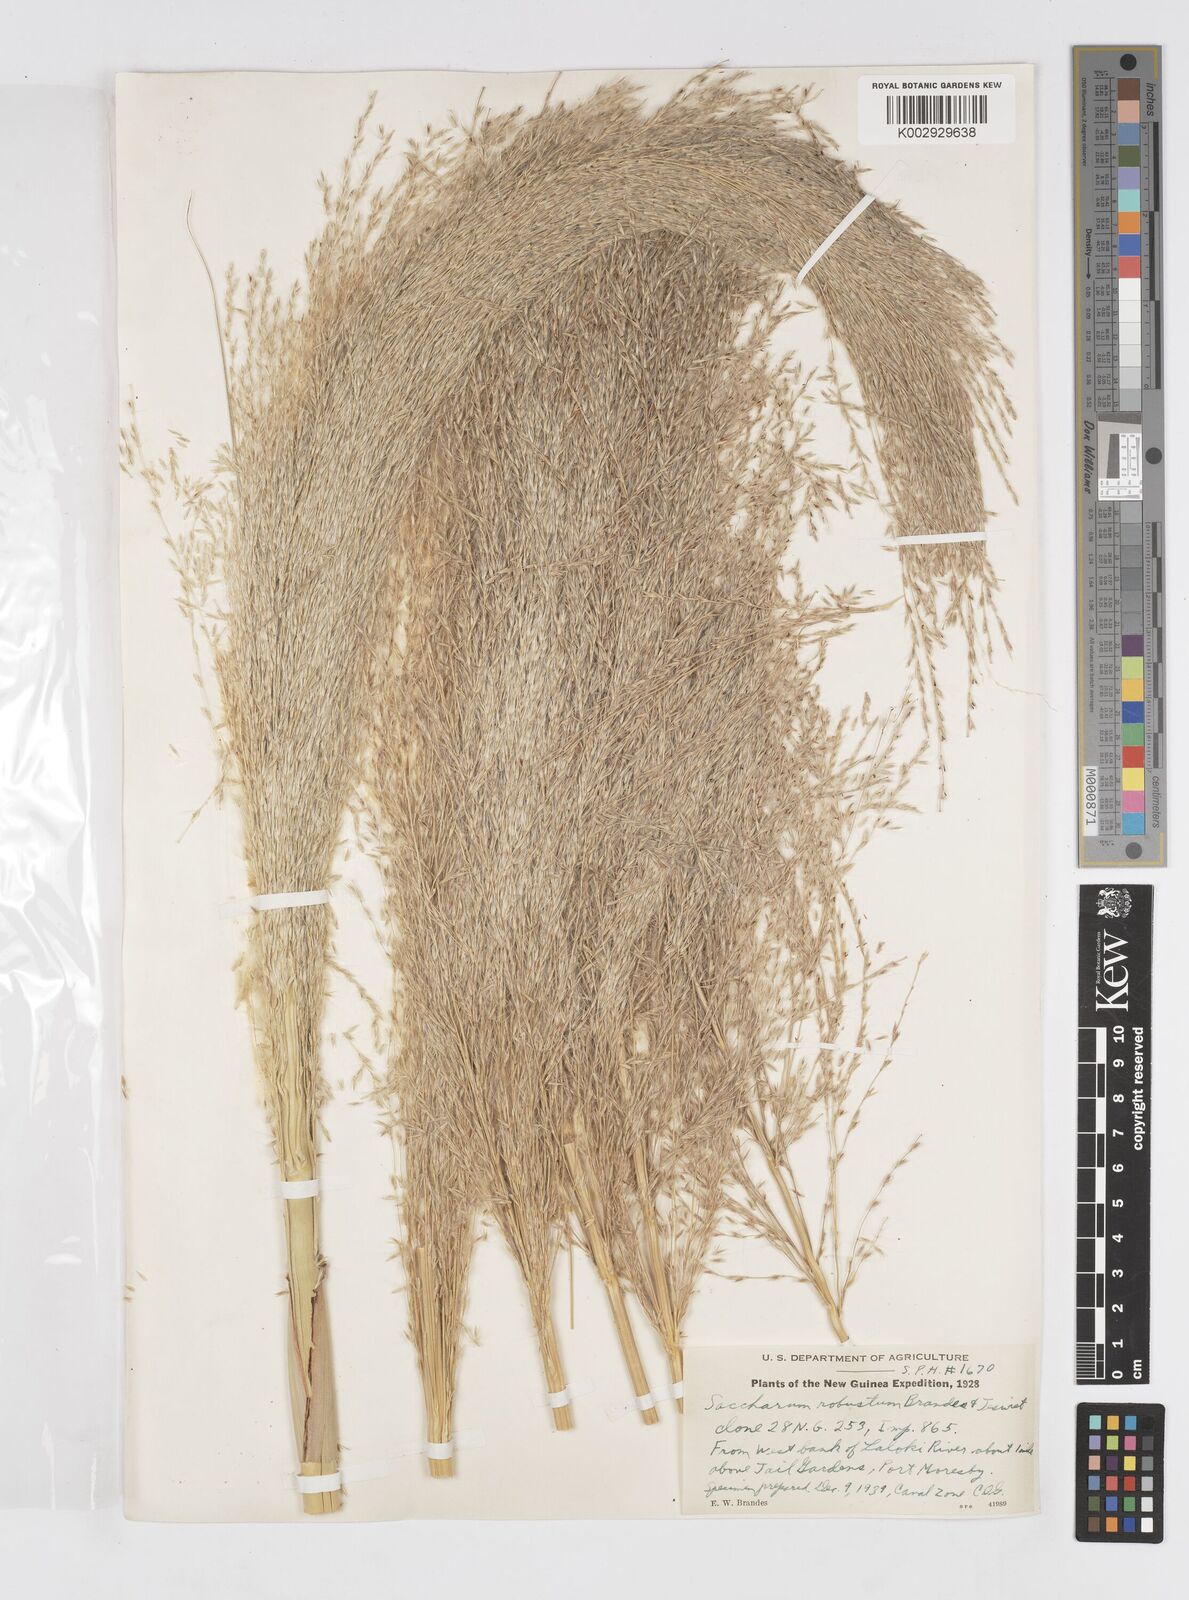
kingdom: Plantae
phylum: Tracheophyta
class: Liliopsida
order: Poales
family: Poaceae
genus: Saccharum
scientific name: Saccharum robustum
